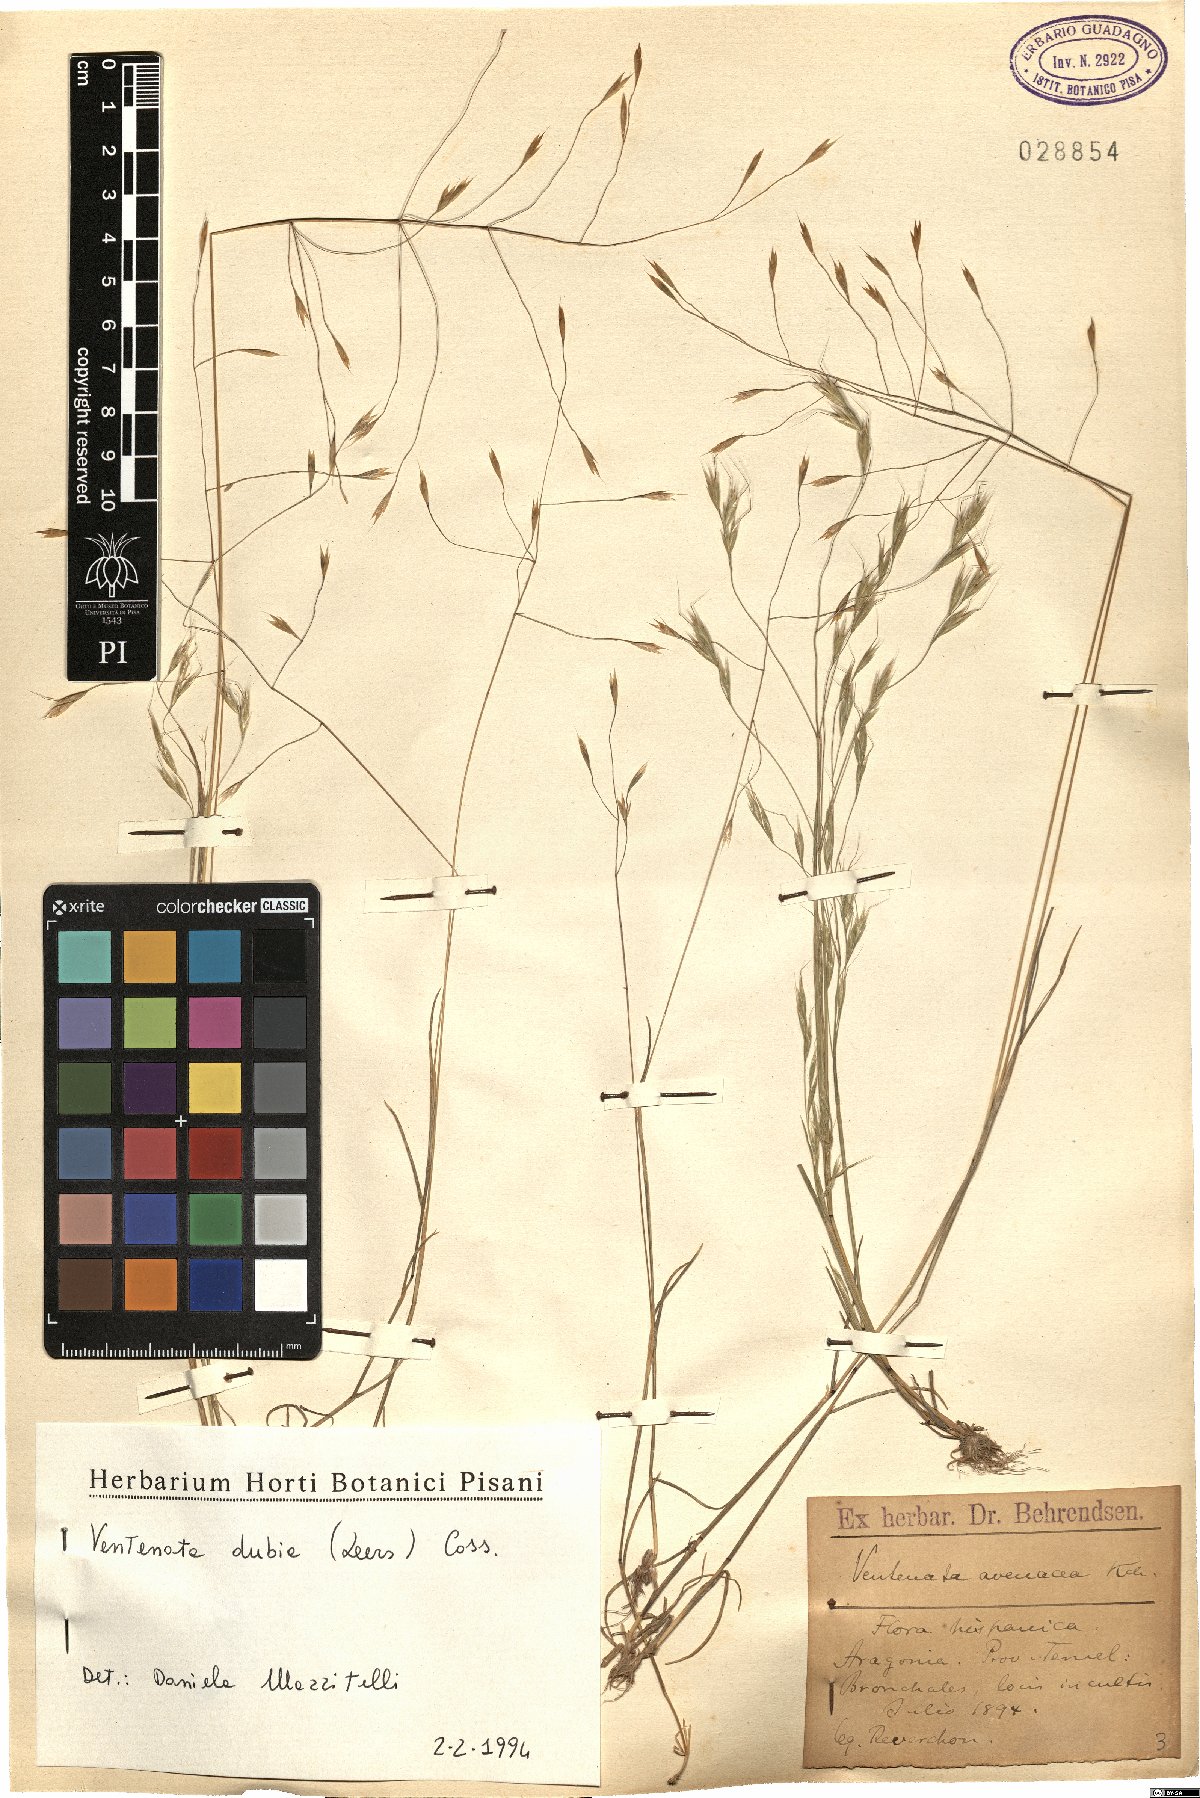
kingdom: Plantae
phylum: Tracheophyta
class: Liliopsida
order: Poales
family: Poaceae
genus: Ventenata
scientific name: Ventenata dubia
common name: North africa grass
